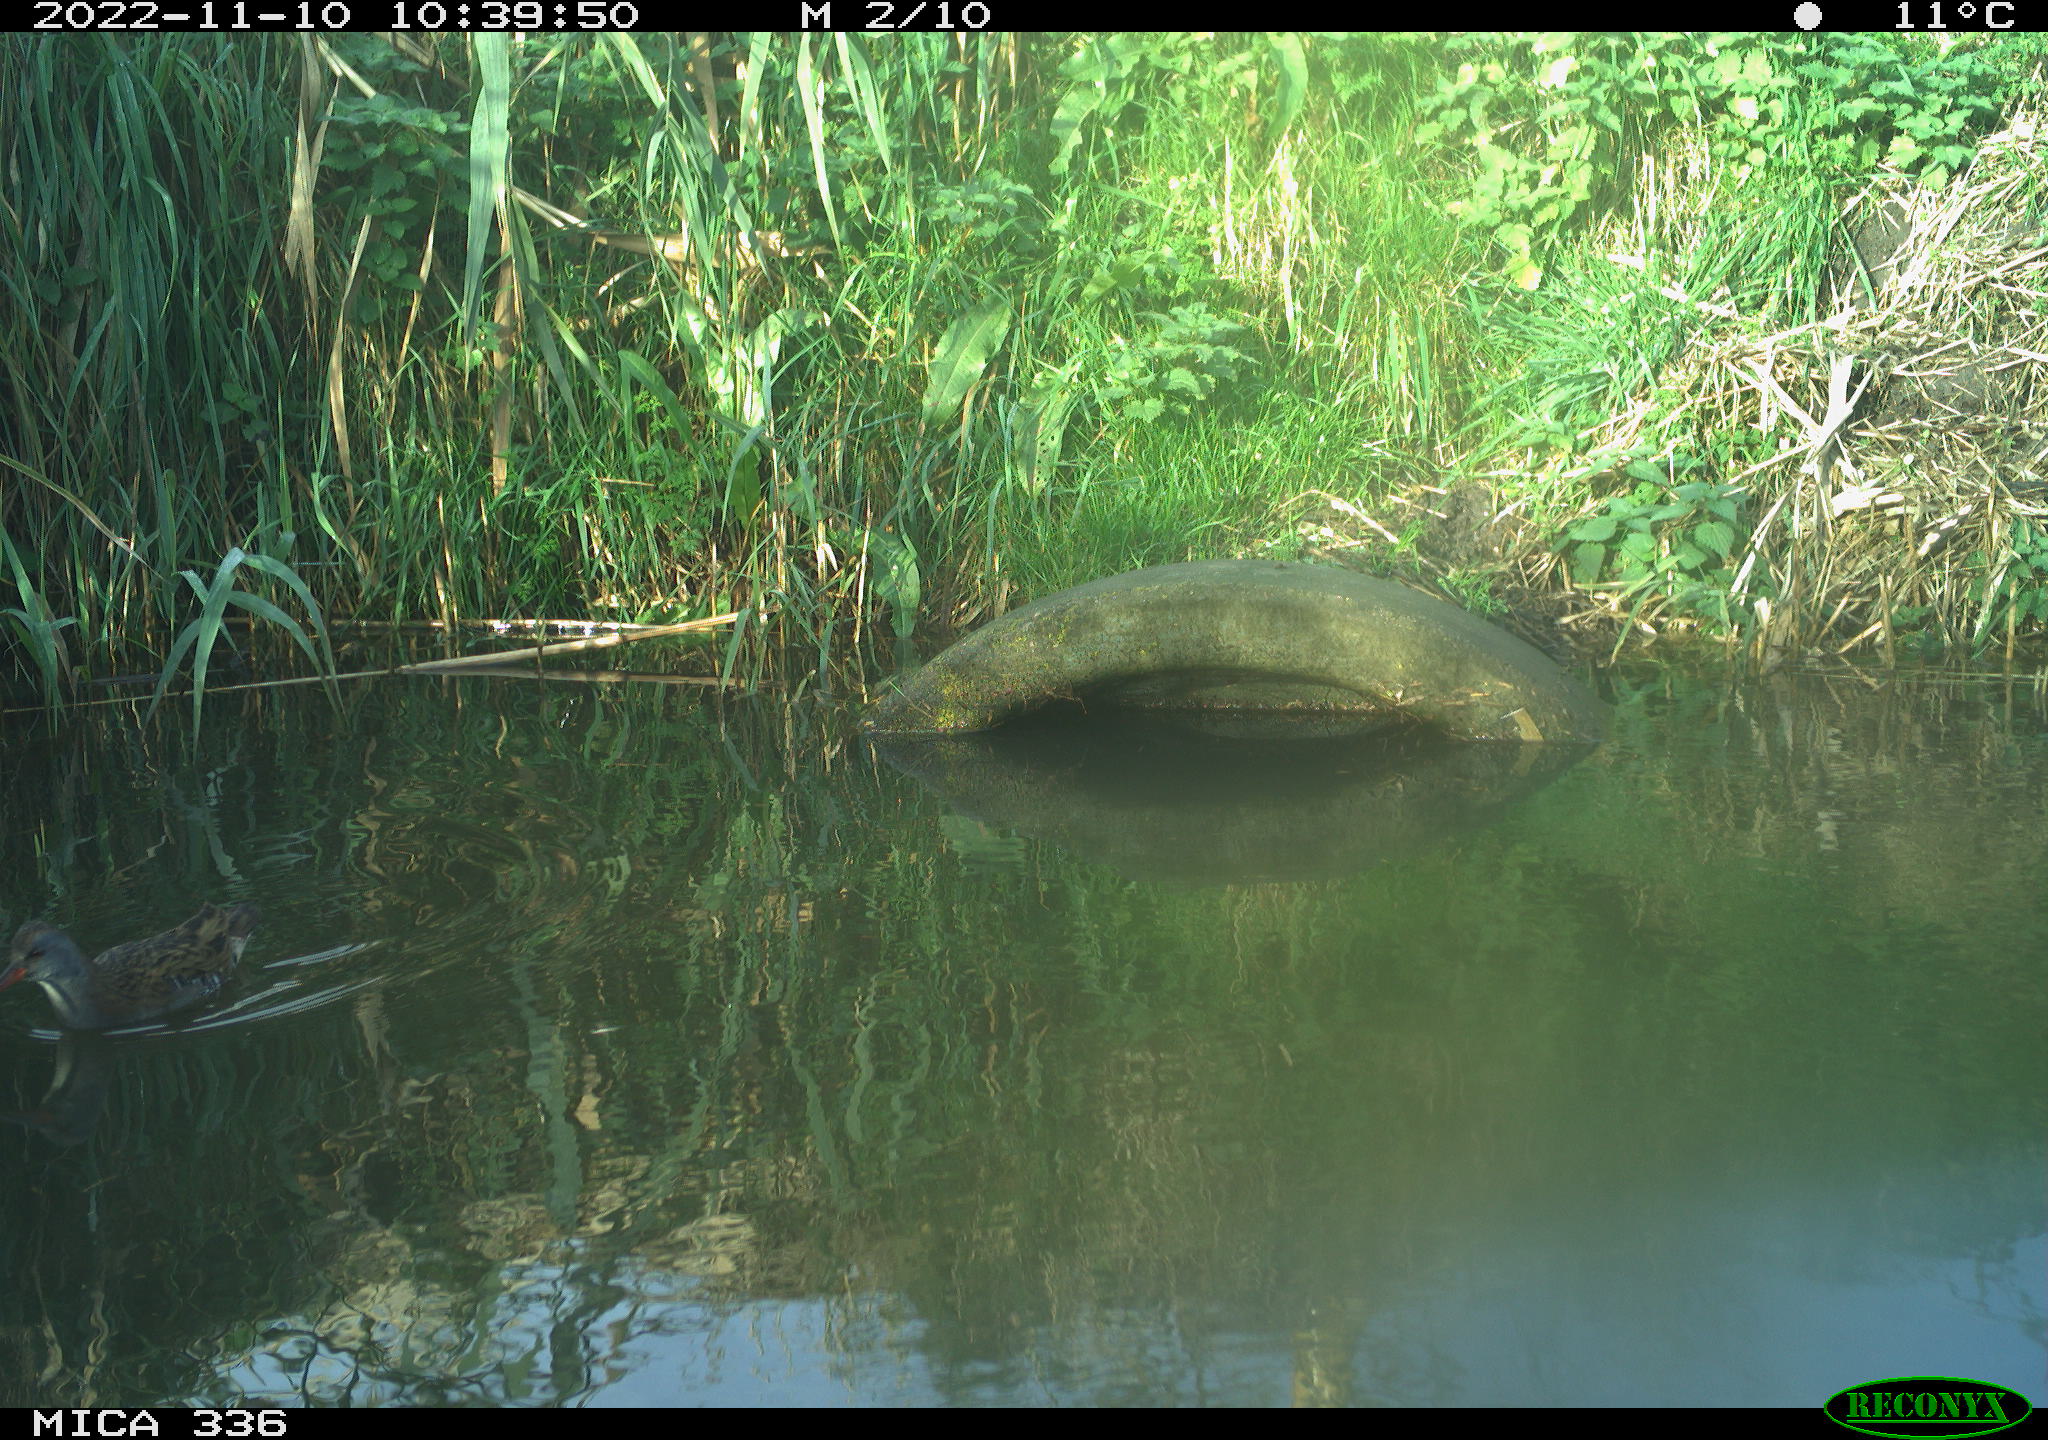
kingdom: Animalia
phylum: Chordata
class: Aves
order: Gruiformes
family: Rallidae
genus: Rallus
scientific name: Rallus aquaticus
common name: Water rail
